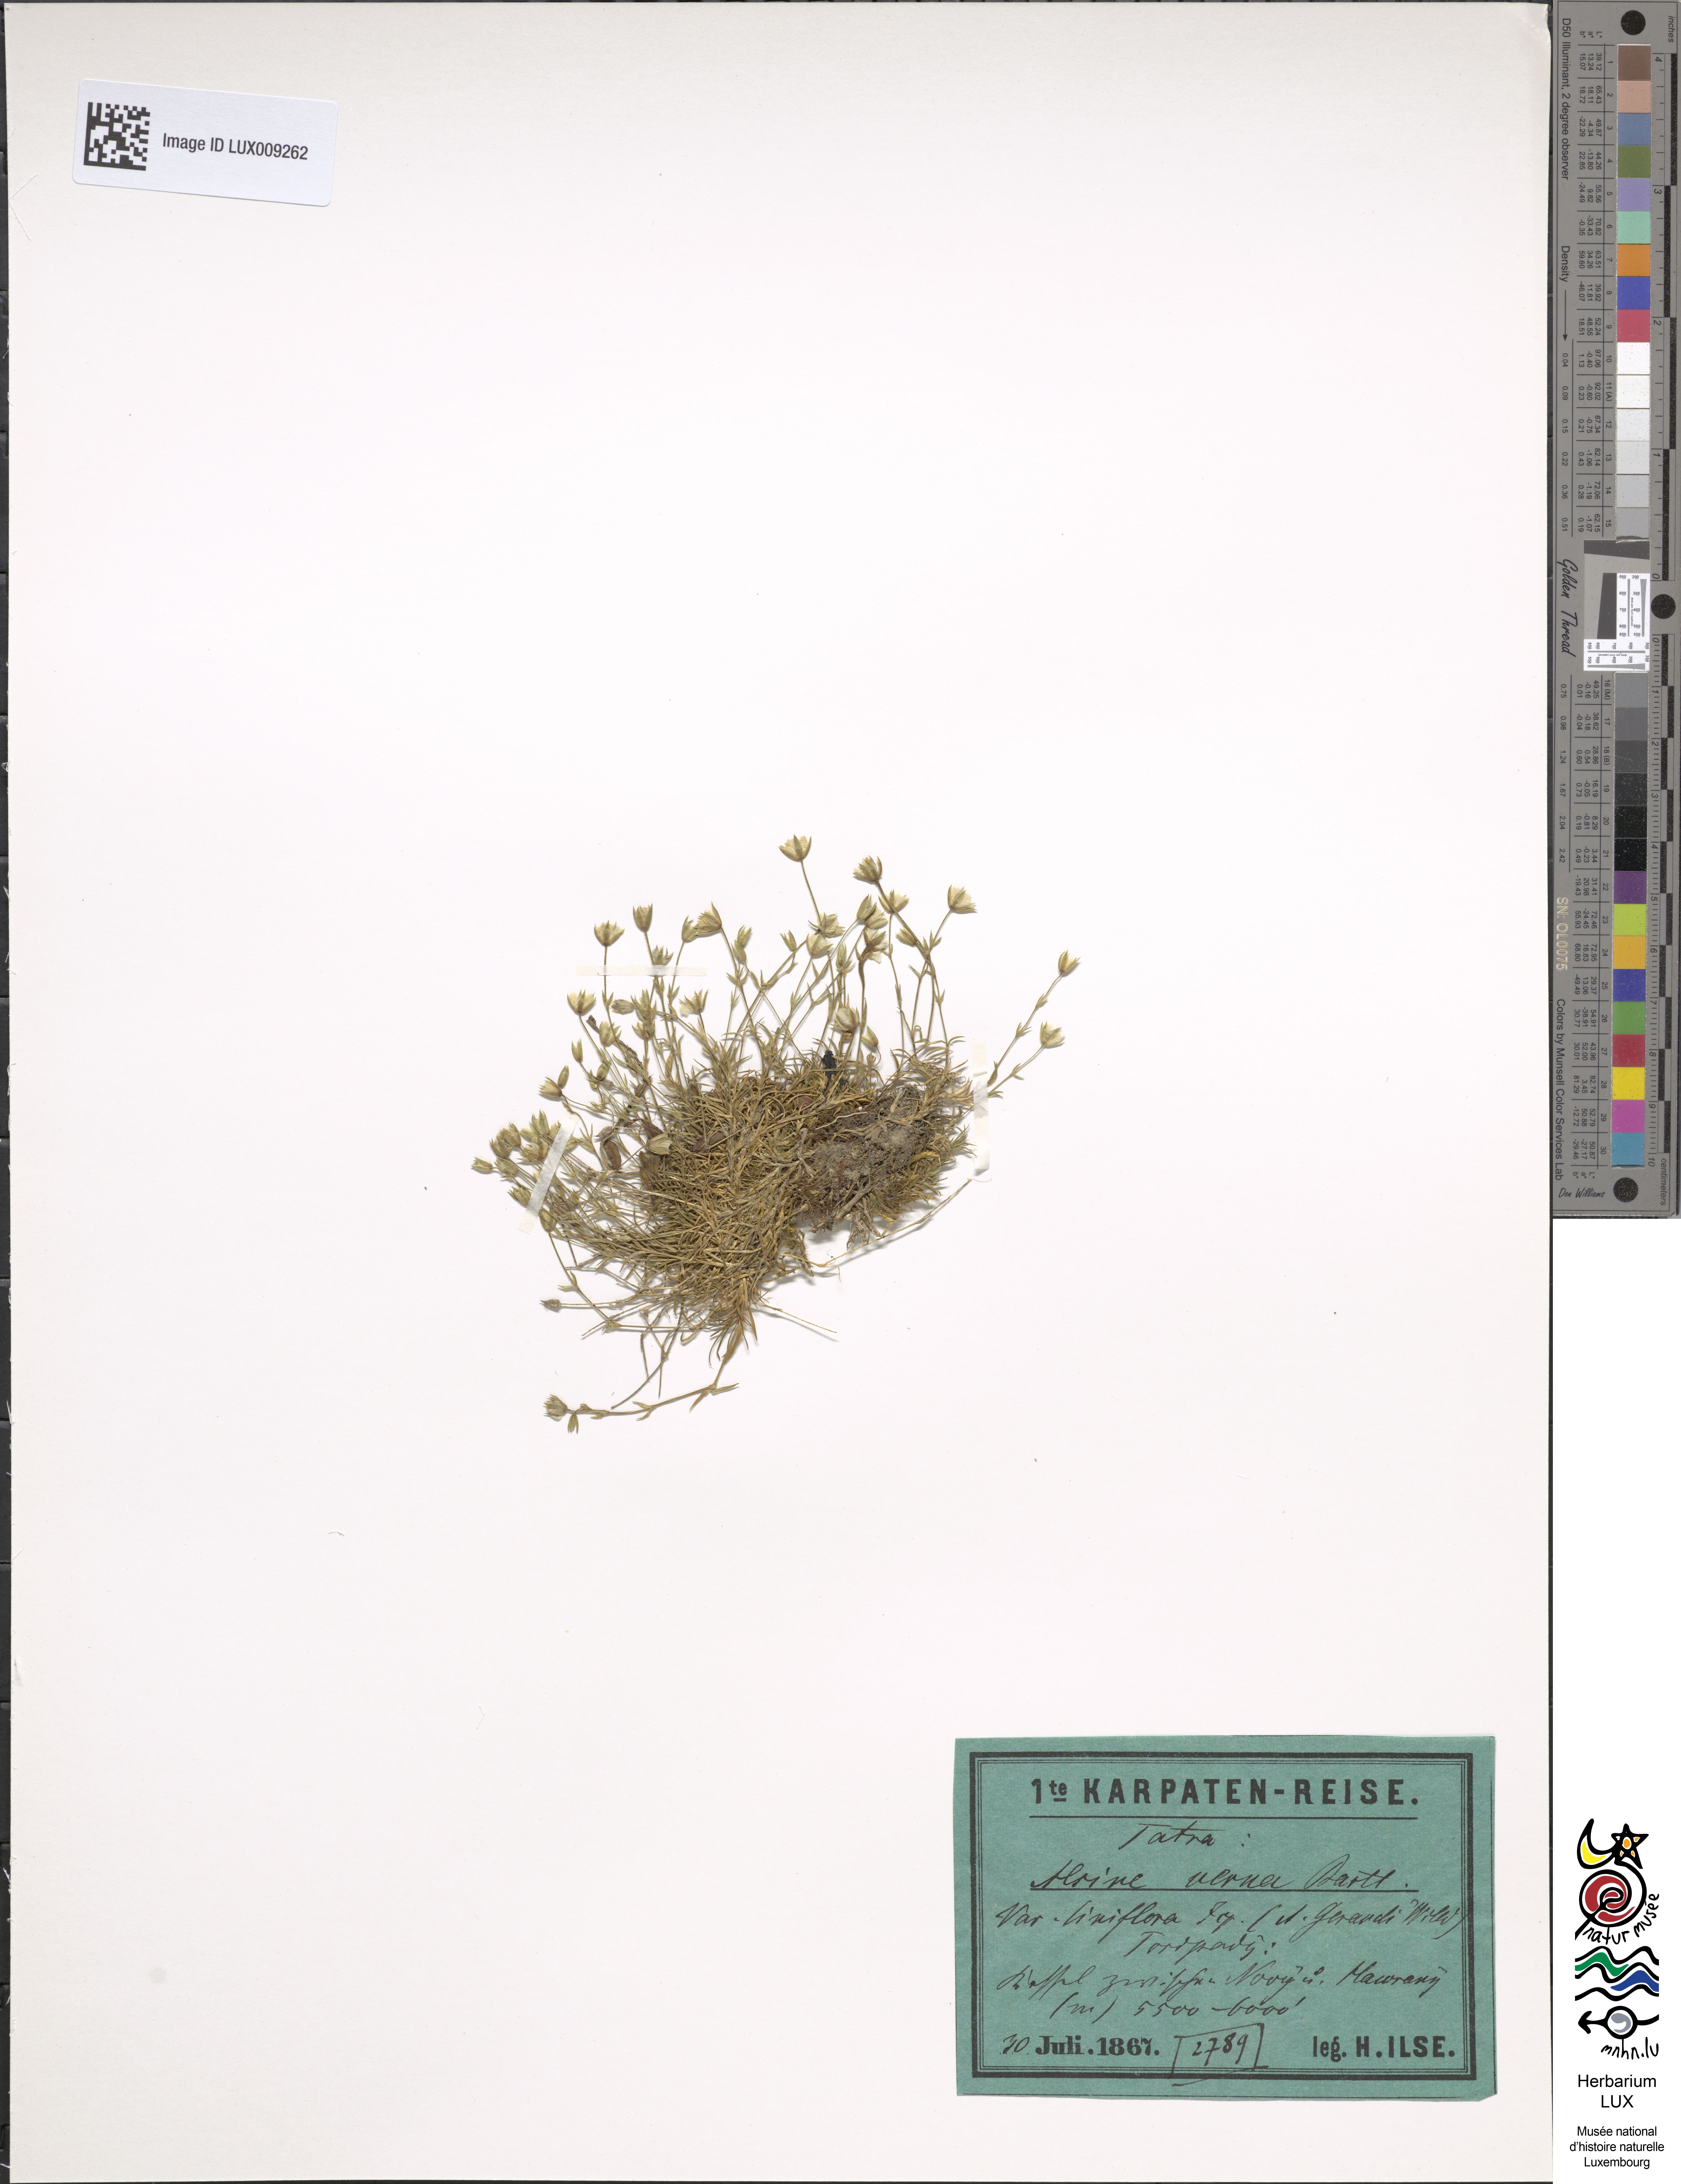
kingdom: Plantae
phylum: Tracheophyta
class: Magnoliopsida
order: Caryophyllales
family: Caryophyllaceae
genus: Sabulina
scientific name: Sabulina verna
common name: Spring sandwort
